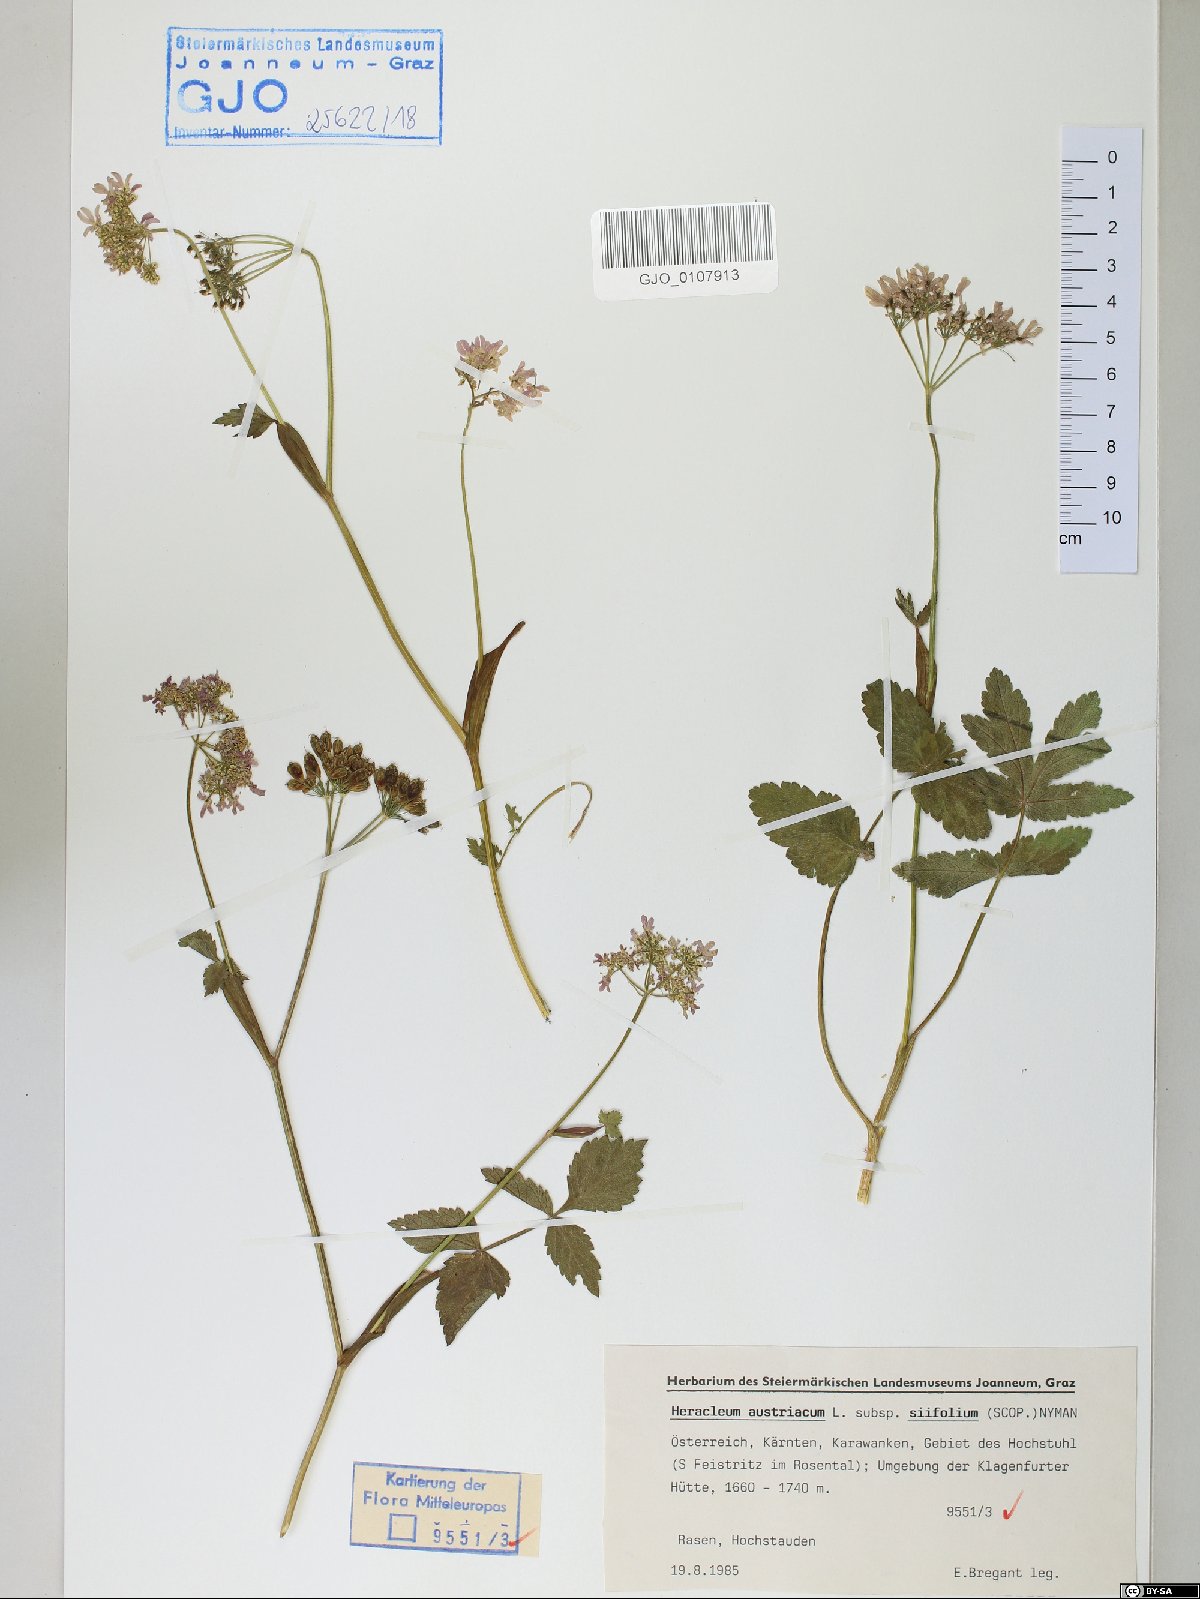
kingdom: Plantae
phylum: Tracheophyta
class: Magnoliopsida
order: Apiales
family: Apiaceae
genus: Heracleum
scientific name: Heracleum austriacum
